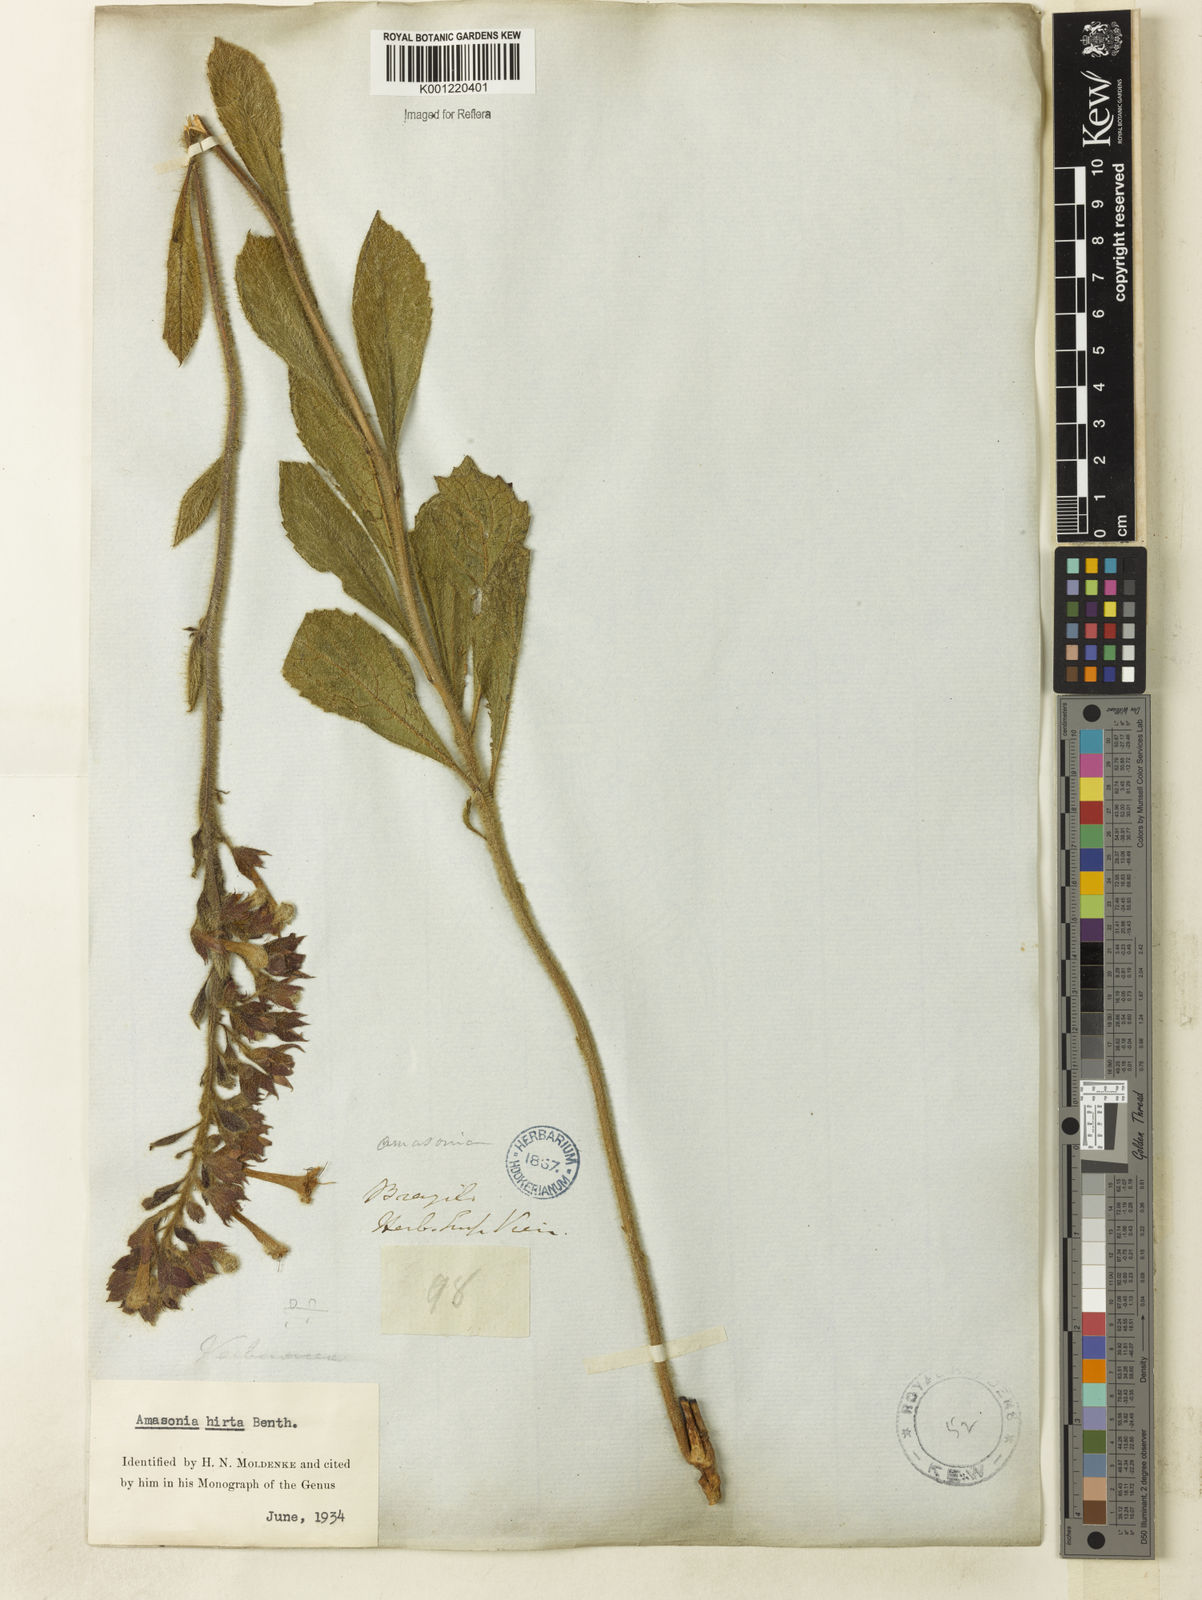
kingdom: Plantae
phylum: Tracheophyta
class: Magnoliopsida
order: Lamiales
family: Lamiaceae
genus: Amasonia
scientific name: Amasonia hirta
